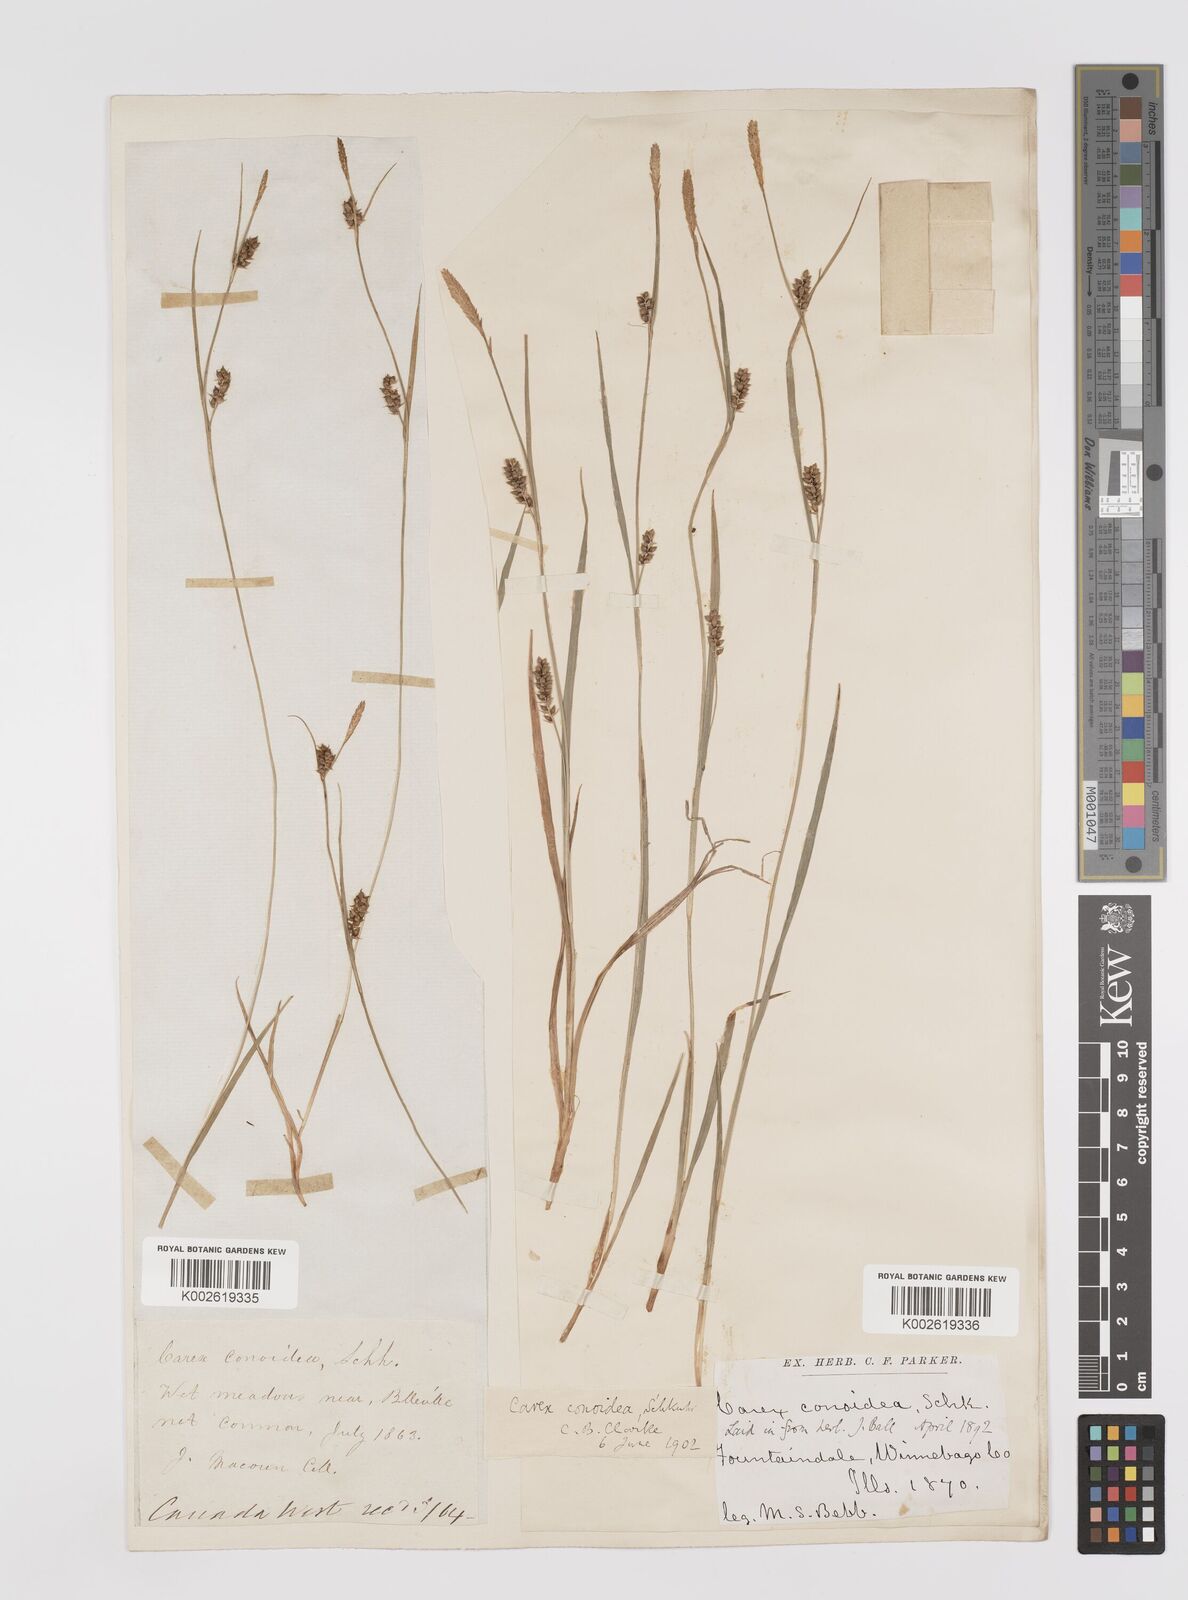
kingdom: Plantae
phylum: Tracheophyta
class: Liliopsida
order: Poales
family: Cyperaceae
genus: Carex
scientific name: Carex conoidea
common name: Cone shaped sedge
